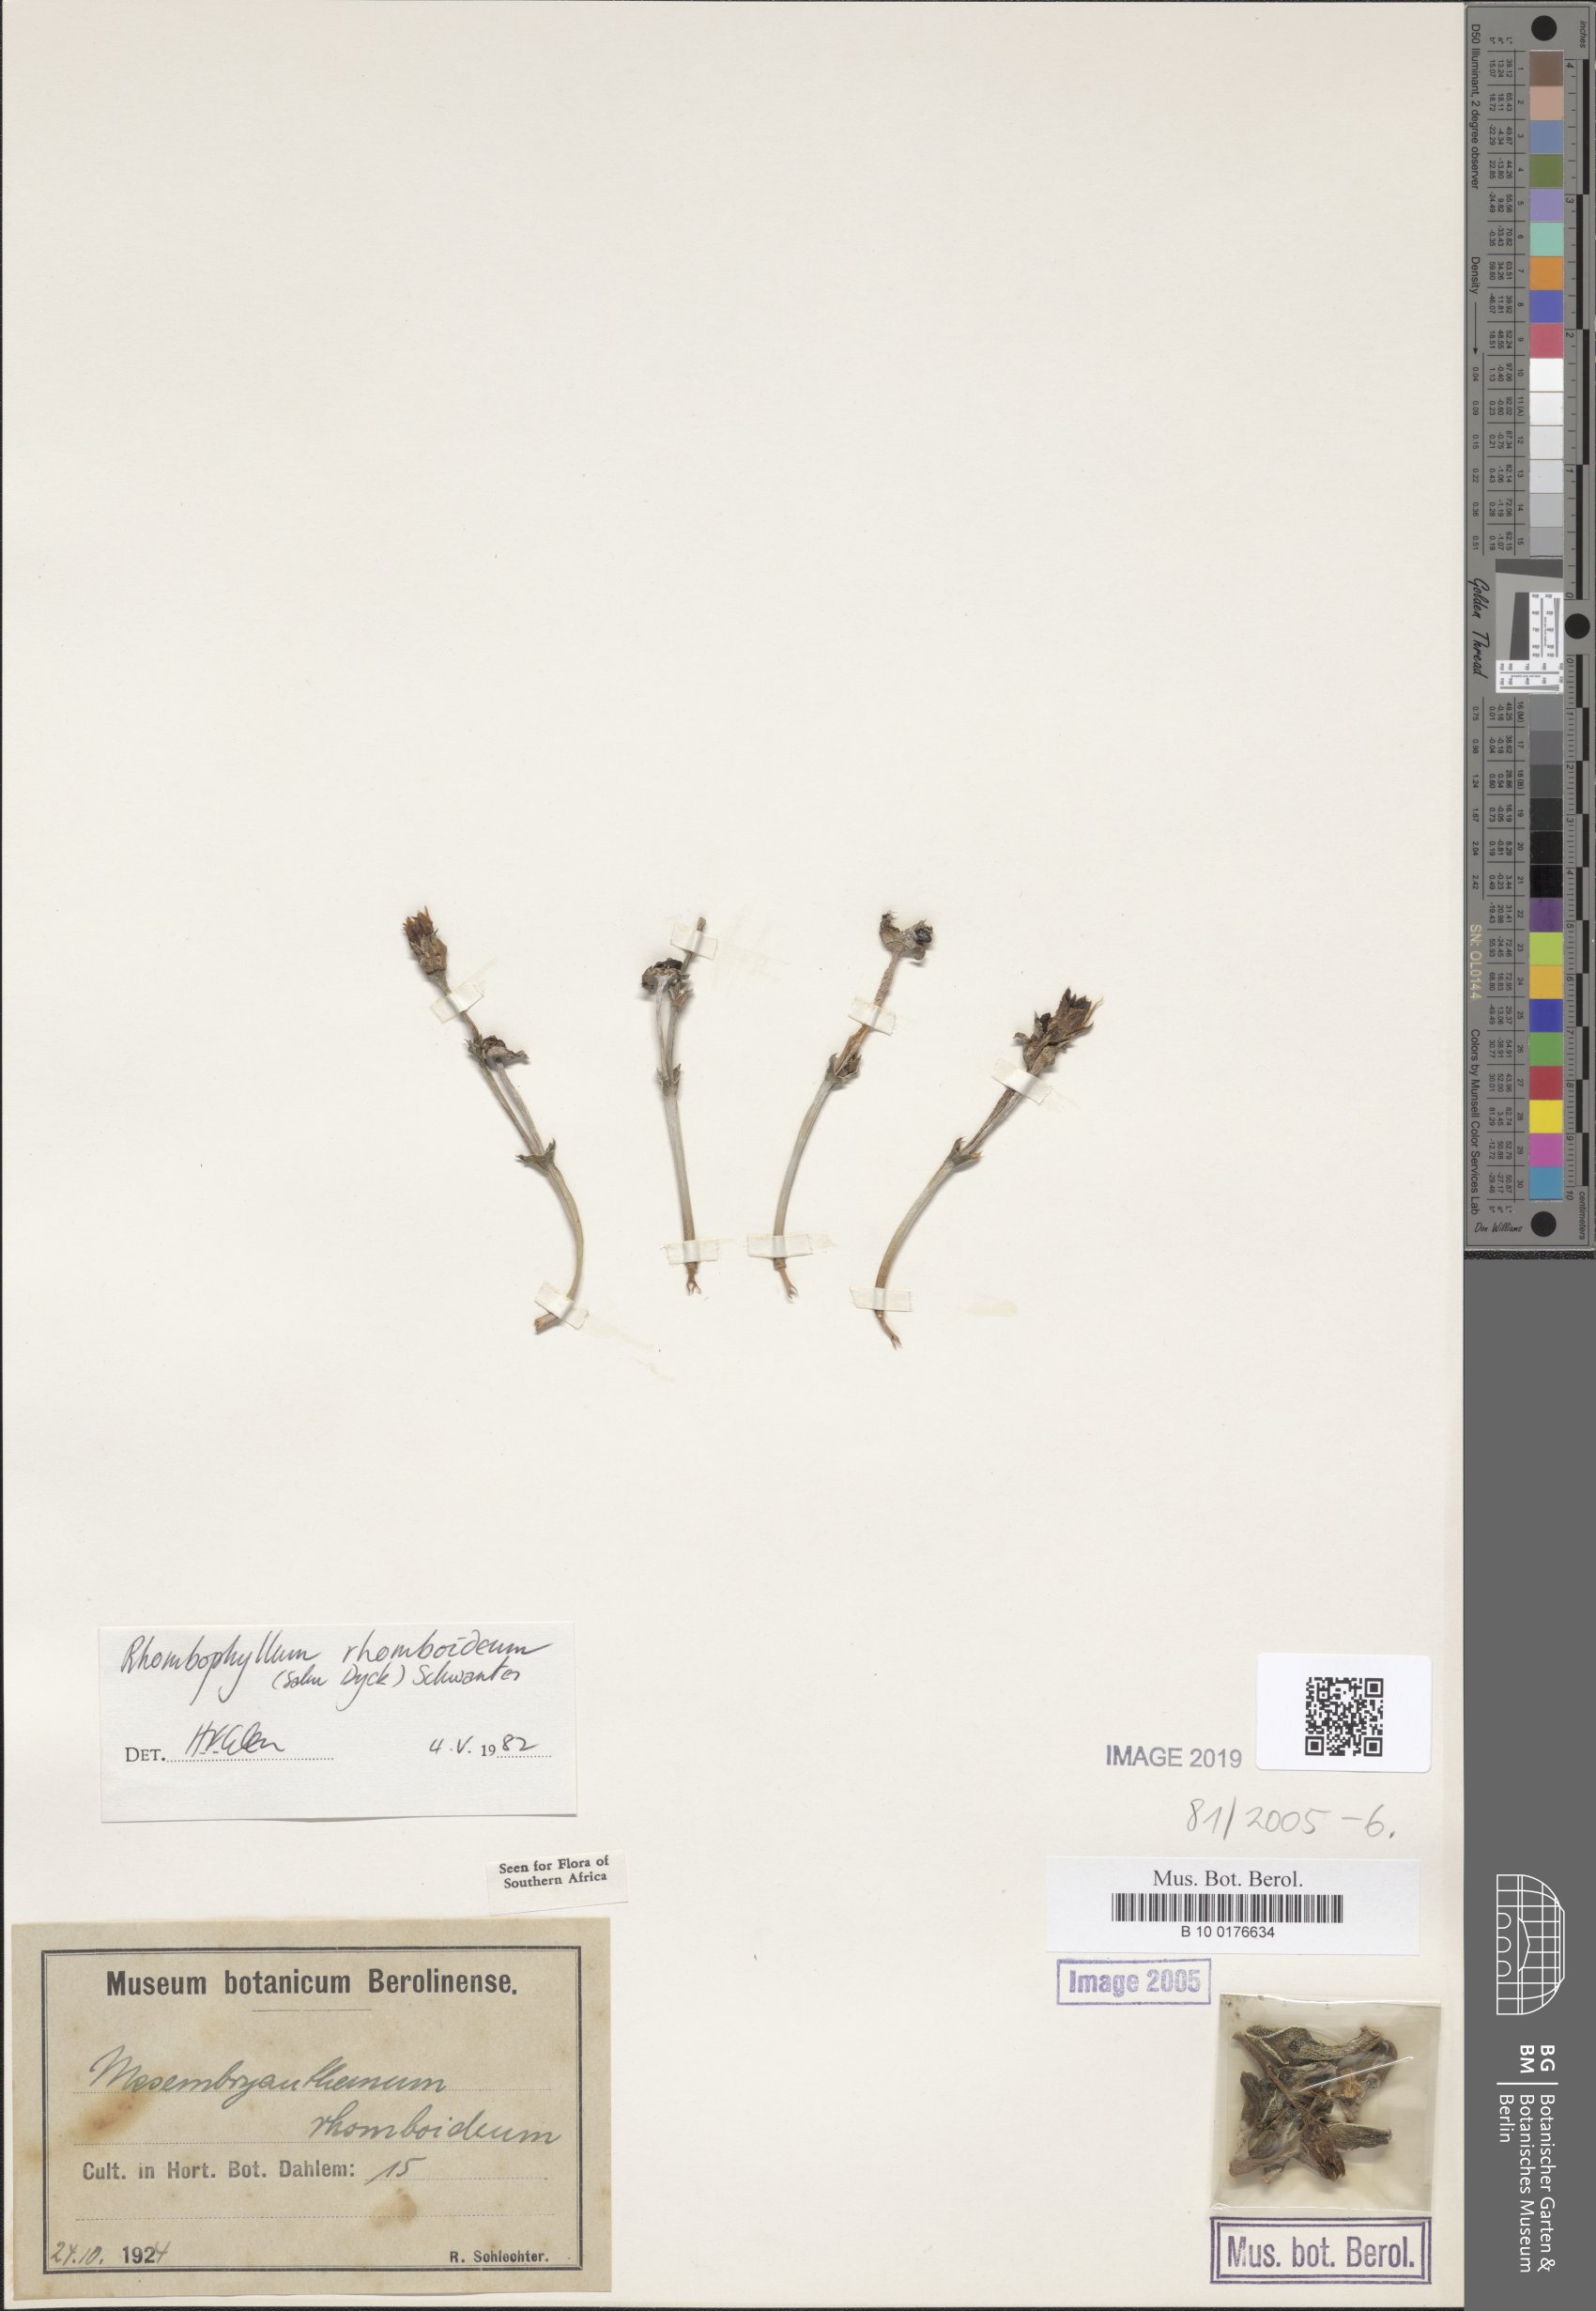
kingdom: Plantae
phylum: Tracheophyta
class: Magnoliopsida
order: Caryophyllales
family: Aizoaceae
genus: Dracophilus
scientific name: Dracophilus Rhombophyllum rhomboideum
